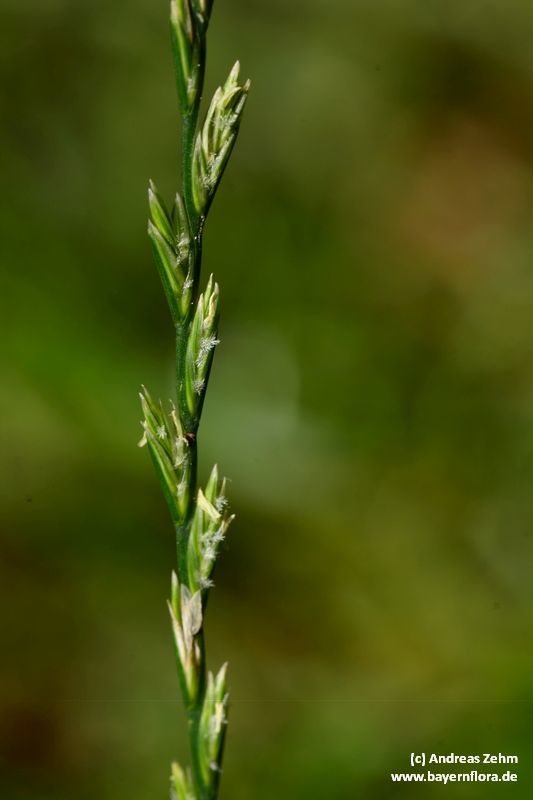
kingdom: Plantae
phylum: Tracheophyta
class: Liliopsida
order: Poales
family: Poaceae
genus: Lolium
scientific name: Lolium perenne
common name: Perennial ryegrass
